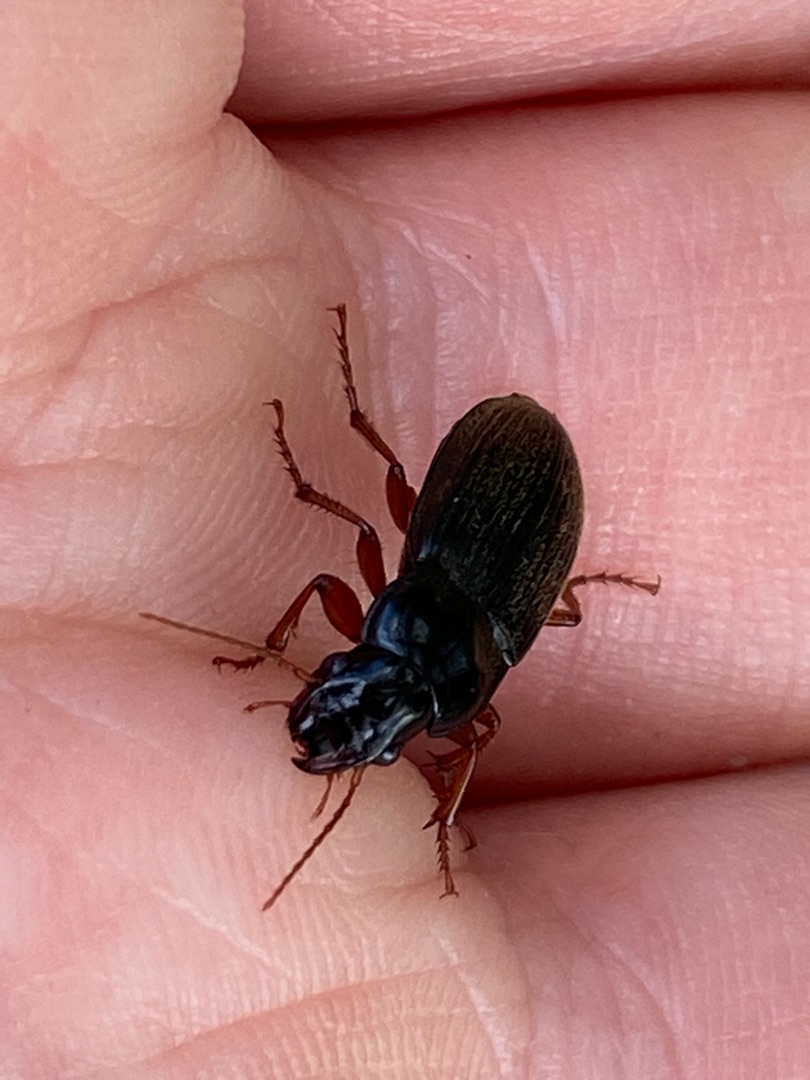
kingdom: Animalia
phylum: Arthropoda
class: Insecta
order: Coleoptera
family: Carabidae
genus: Harpalus
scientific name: Harpalus rufipes
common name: Håret markløber
